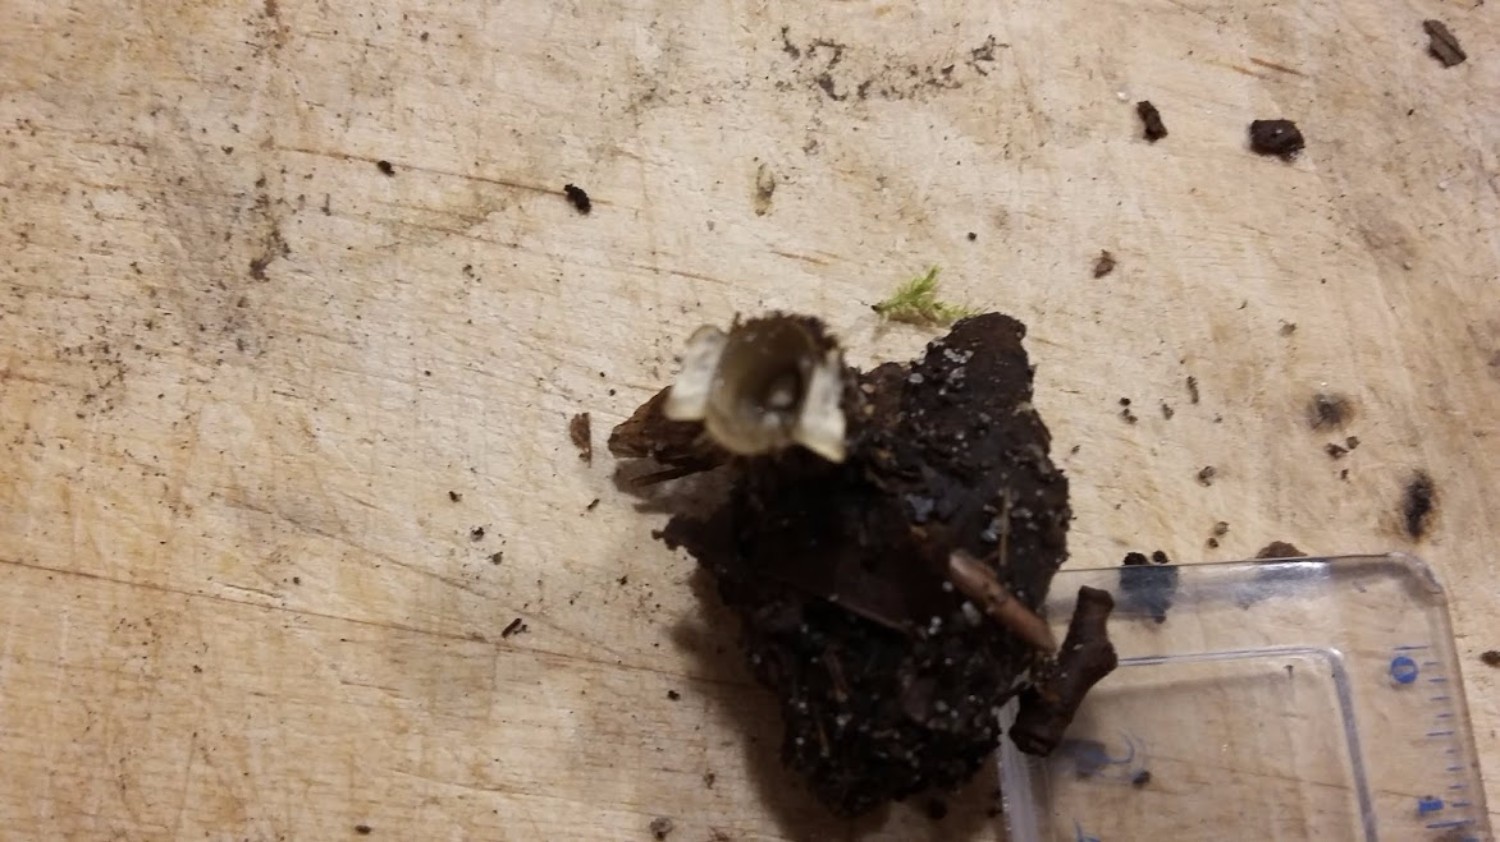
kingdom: Fungi
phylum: Basidiomycota
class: Agaricomycetes
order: Agaricales
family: Agaricaceae
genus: Cyathus
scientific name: Cyathus olla
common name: klokke-redesvamp
